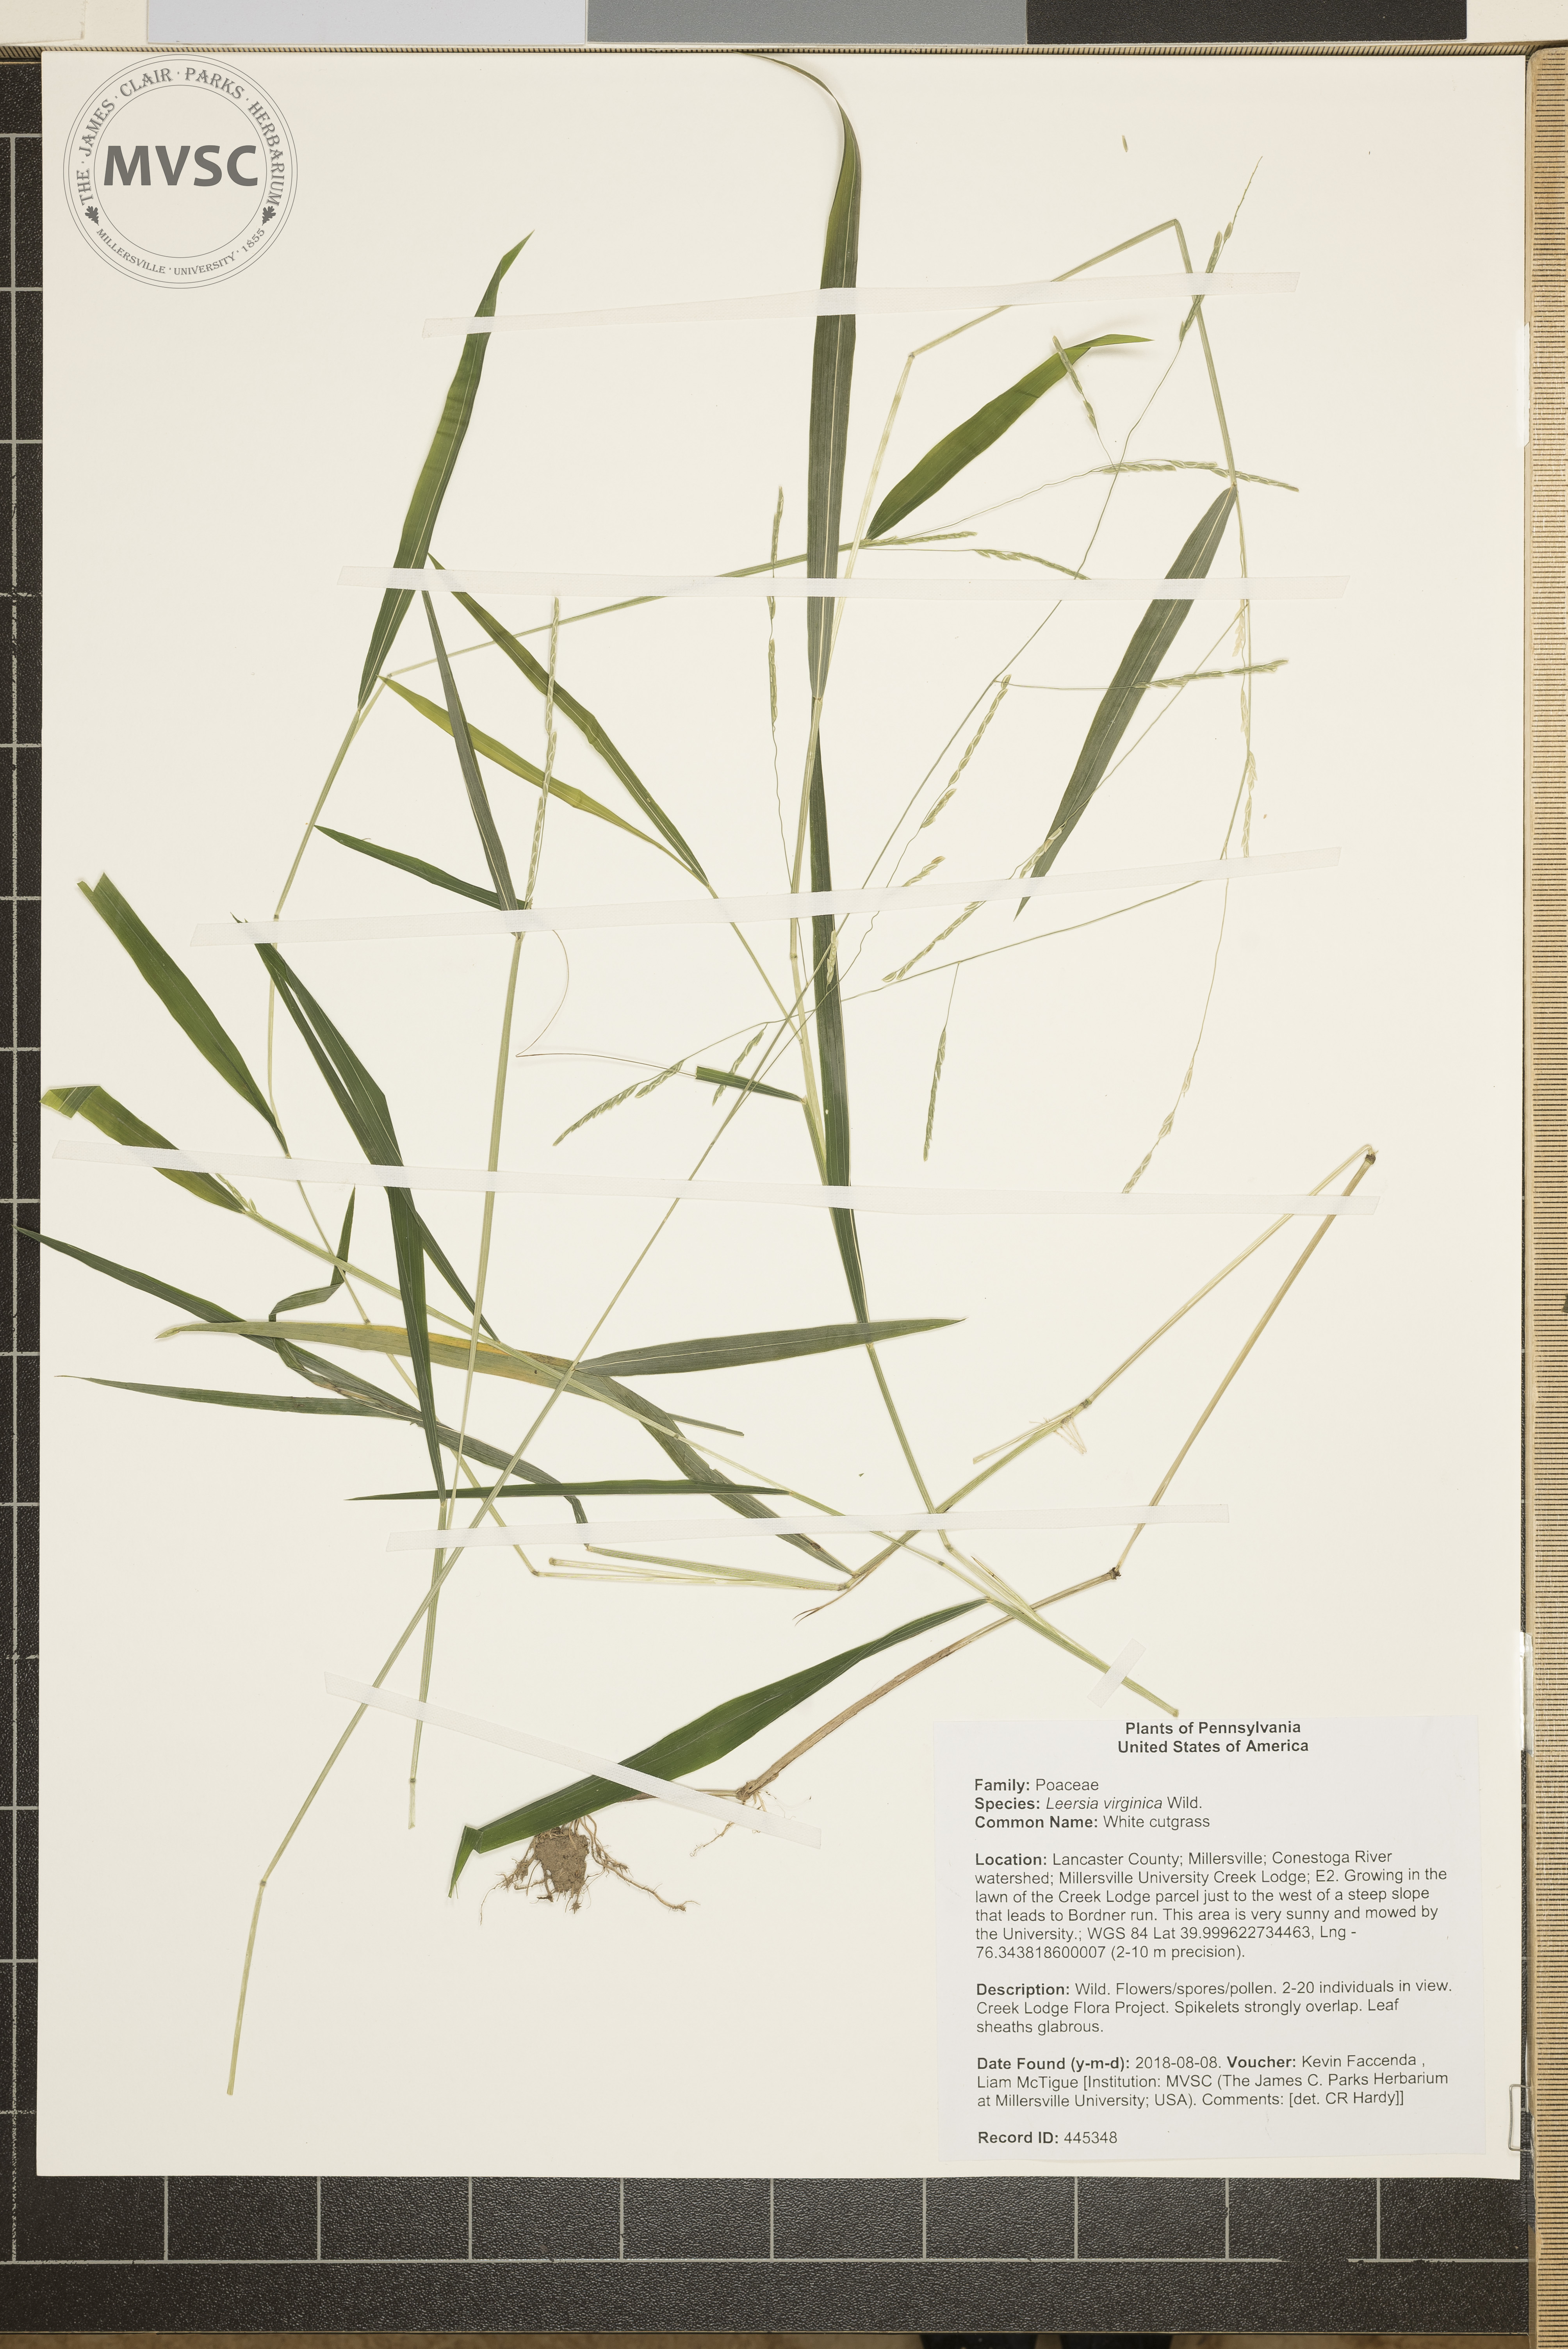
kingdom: Plantae
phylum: Tracheophyta
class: Liliopsida
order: Poales
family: Poaceae
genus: Leersia
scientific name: Leersia virginica
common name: White cutgrass
